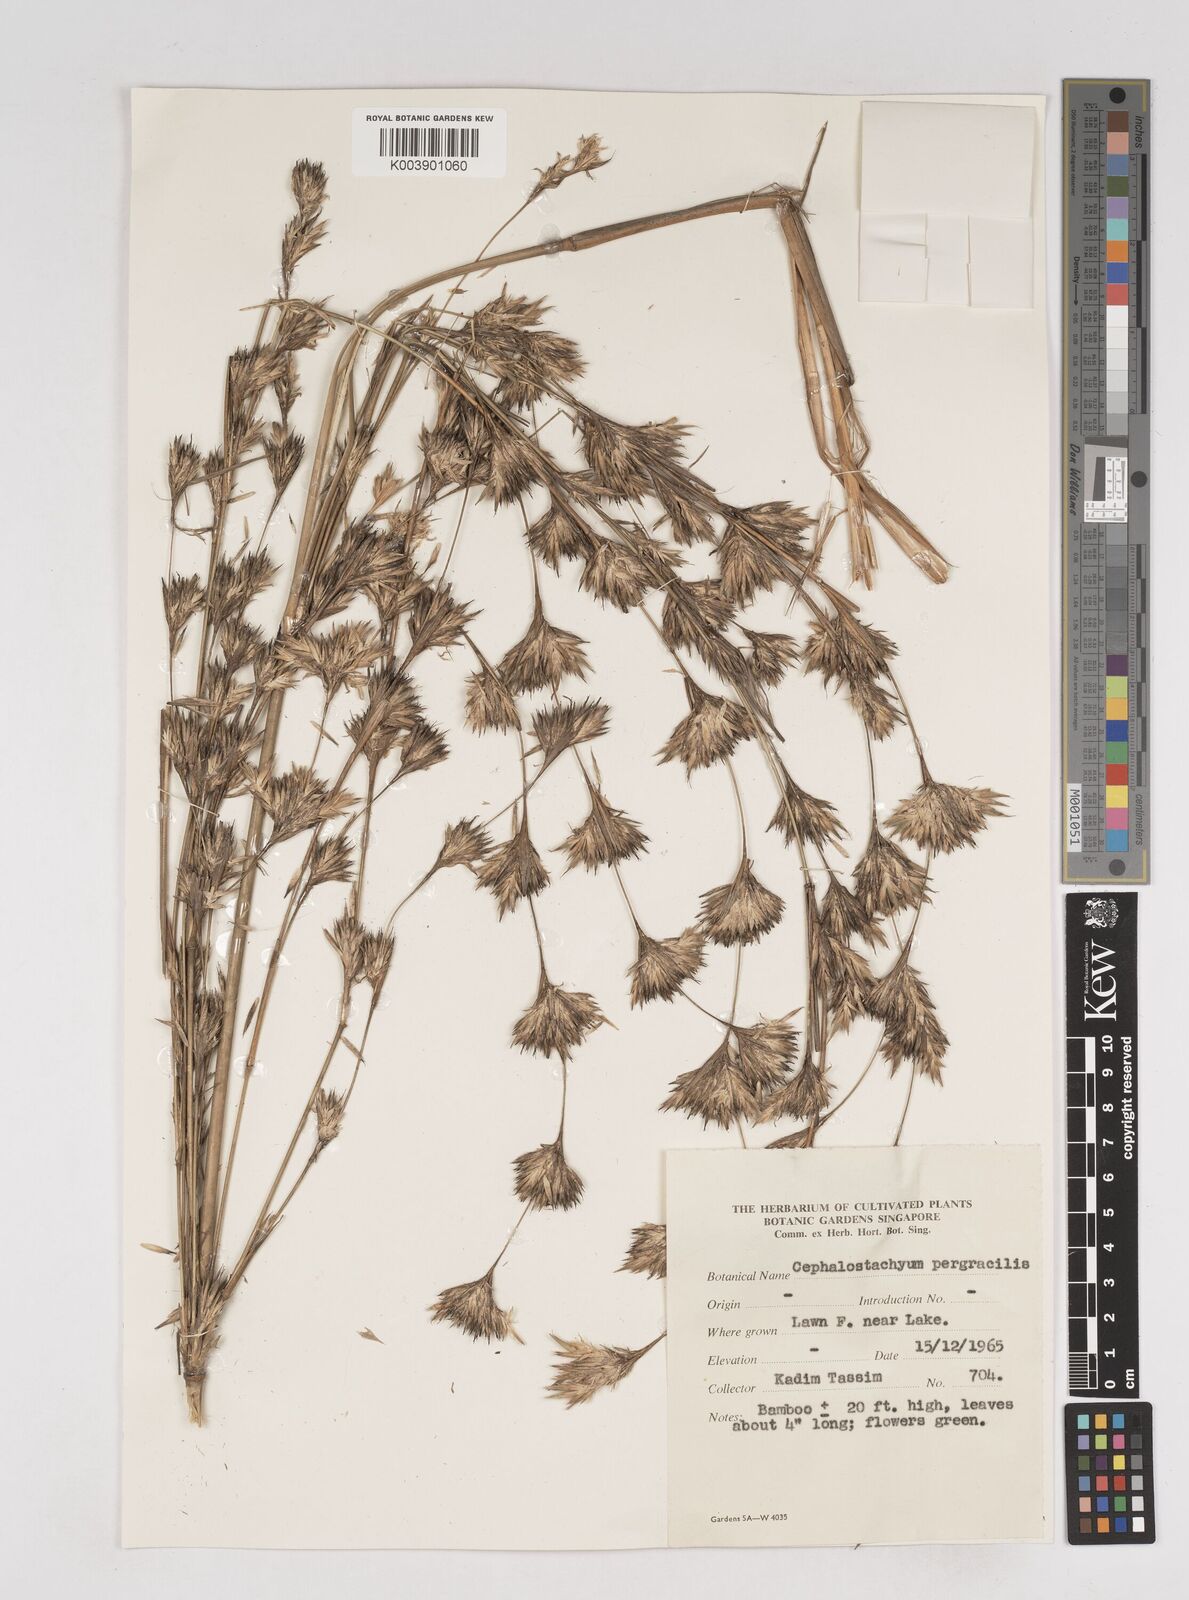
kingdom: Plantae
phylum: Tracheophyta
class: Liliopsida
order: Poales
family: Poaceae
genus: Schizostachyum
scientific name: Schizostachyum pergracile
